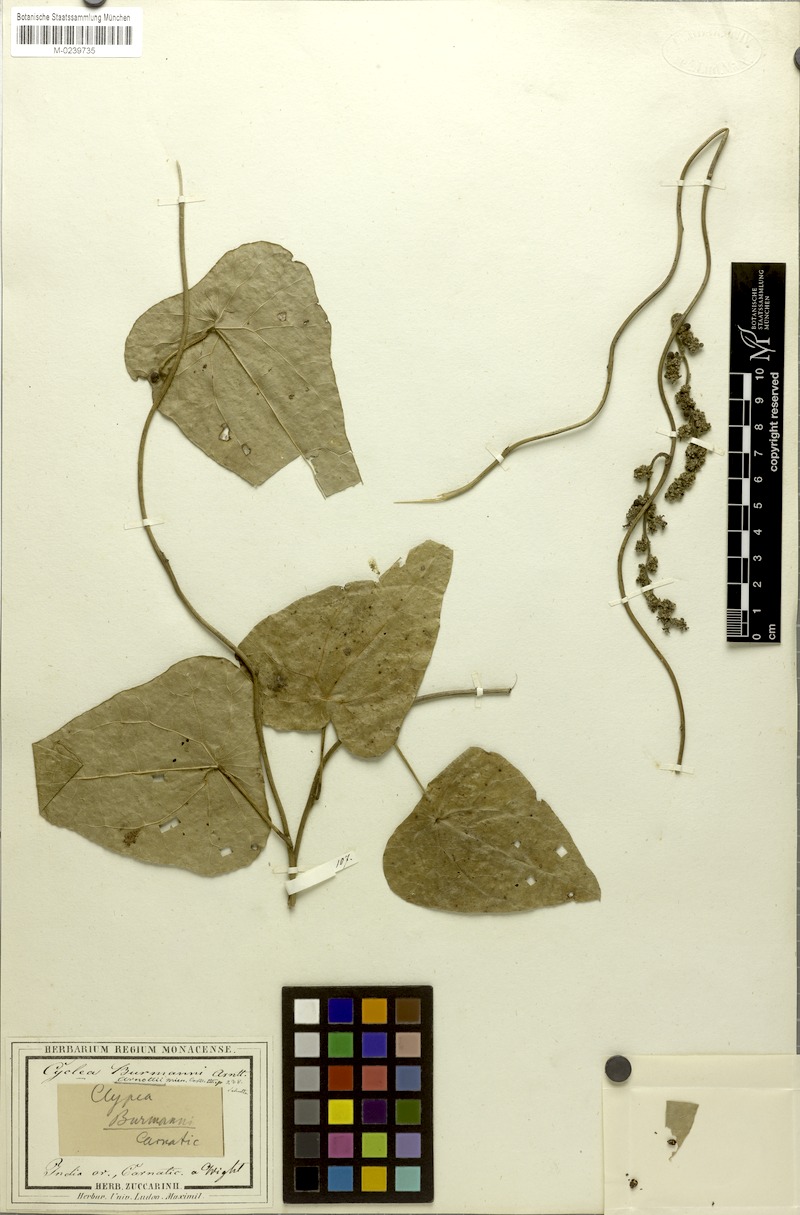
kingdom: Plantae
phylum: Tracheophyta
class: Magnoliopsida
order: Ranunculales
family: Menispermaceae
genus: Cyclea
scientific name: Cyclea peltata
